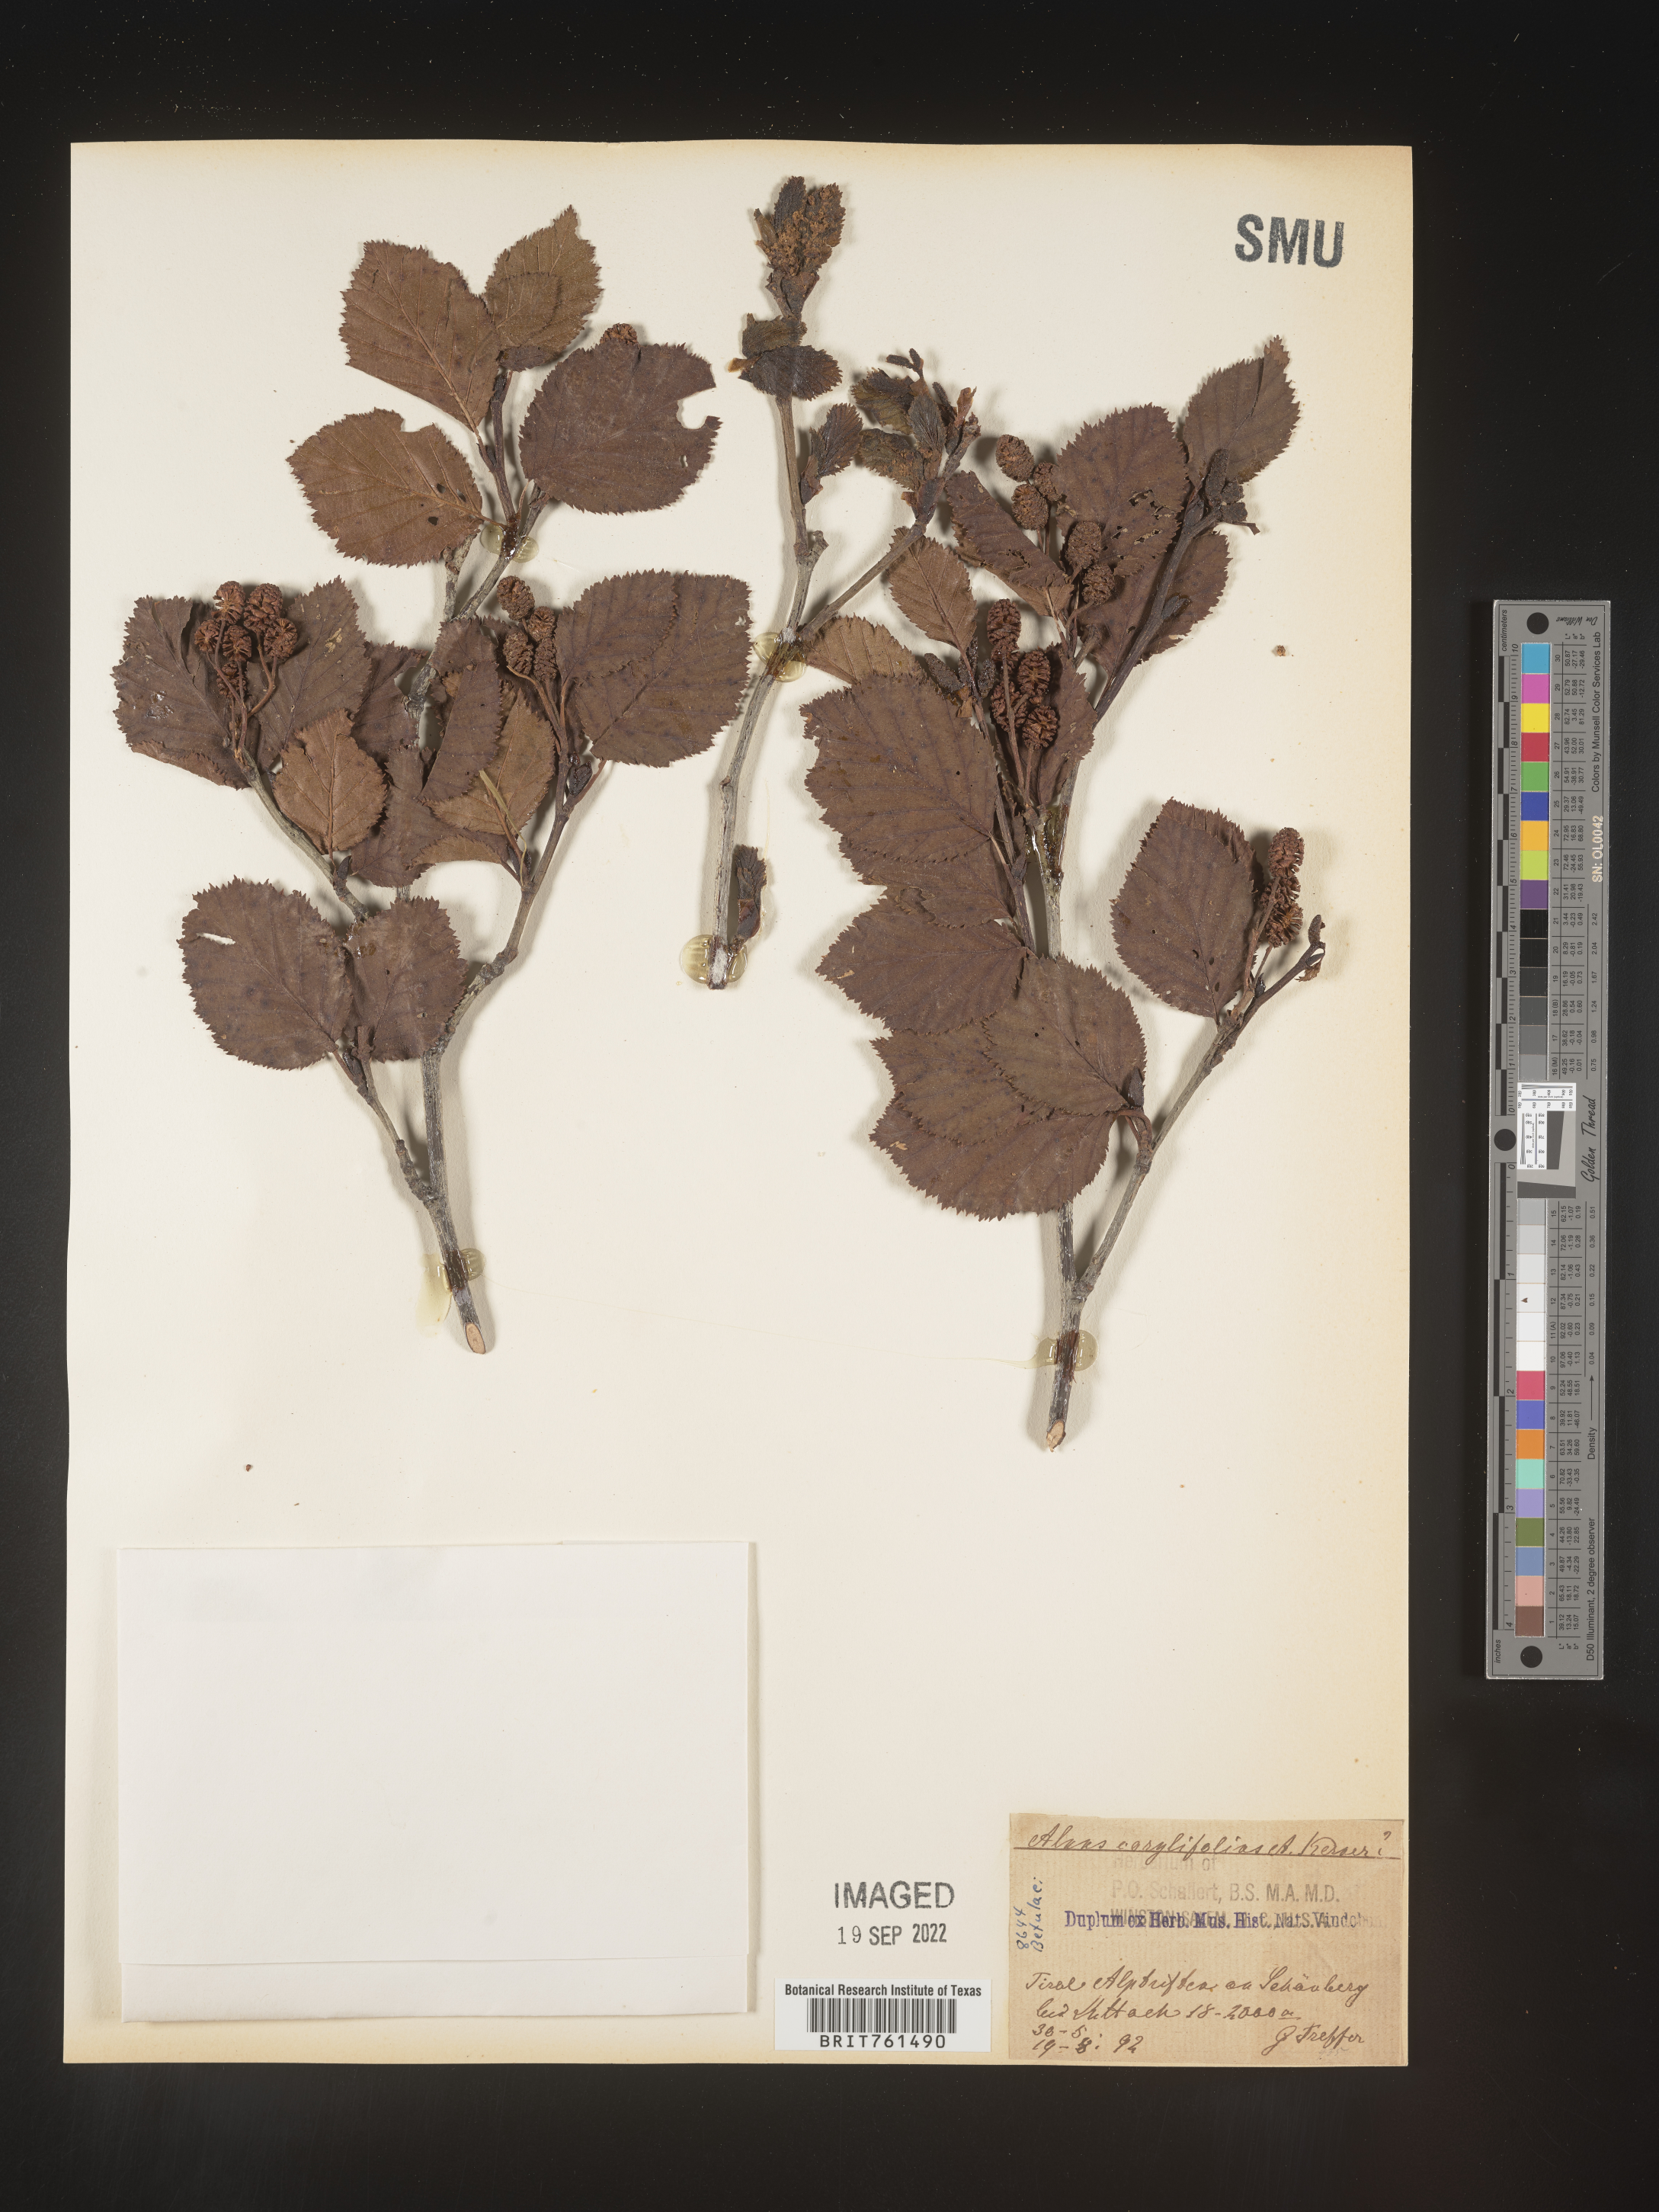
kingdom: Plantae
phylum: Tracheophyta
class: Magnoliopsida
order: Fagales
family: Betulaceae
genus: Alnus
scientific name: Alnus
